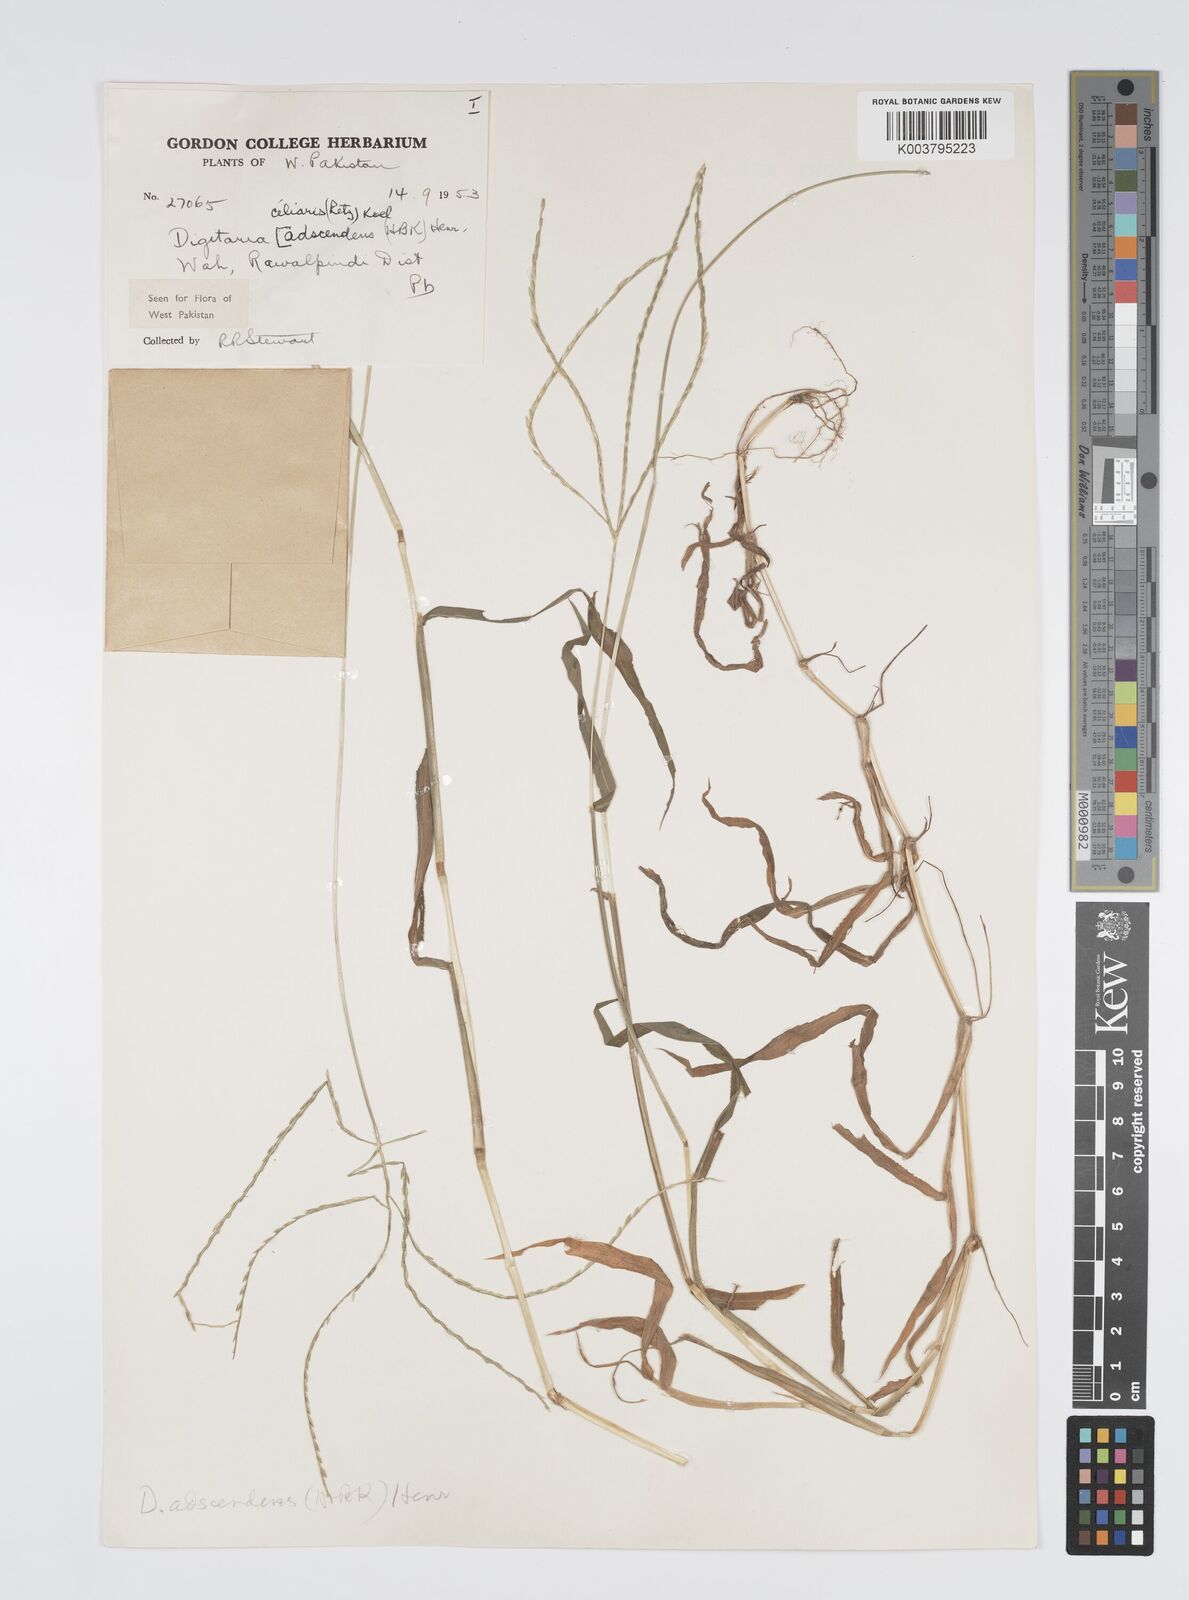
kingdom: Plantae
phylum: Tracheophyta
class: Liliopsida
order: Poales
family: Poaceae
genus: Digitaria
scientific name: Digitaria ciliaris
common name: Tropical finger-grass
